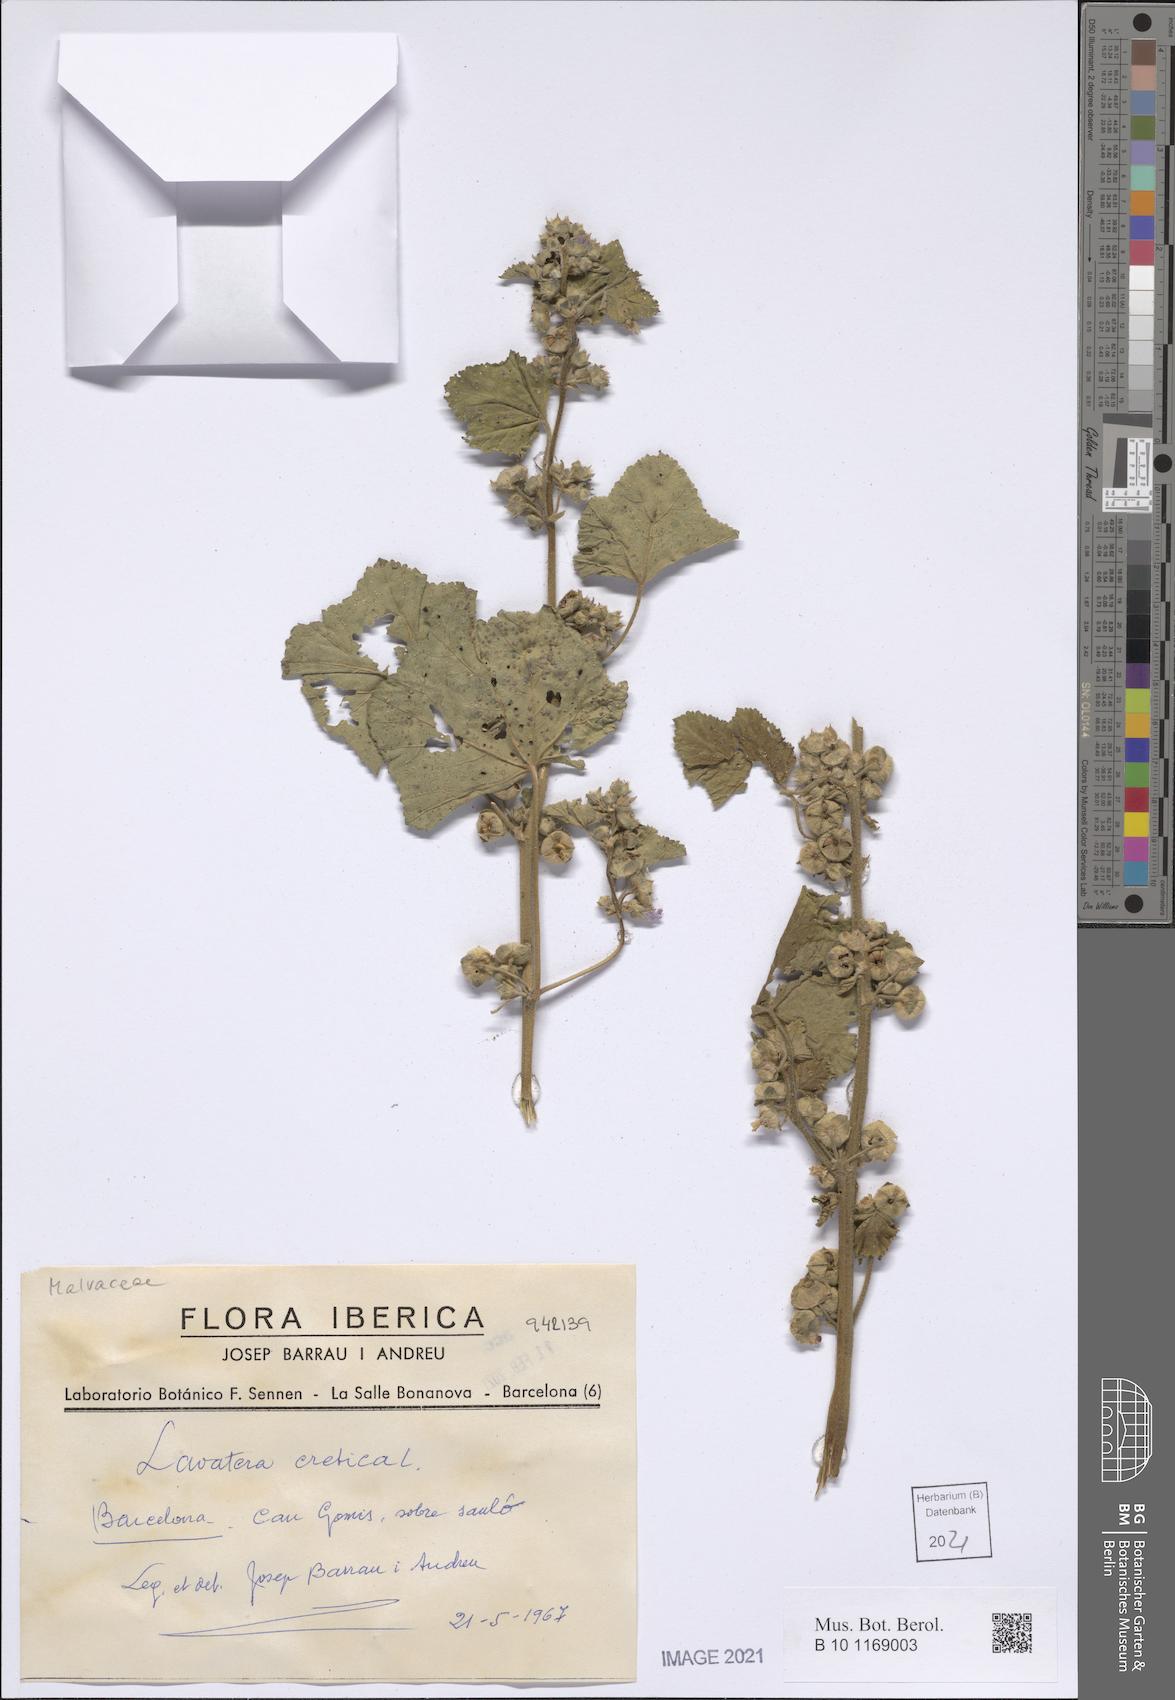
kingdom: Plantae
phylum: Tracheophyta
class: Magnoliopsida
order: Malvales
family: Malvaceae
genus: Malva
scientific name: Malva multiflora
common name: Cheeseweed
